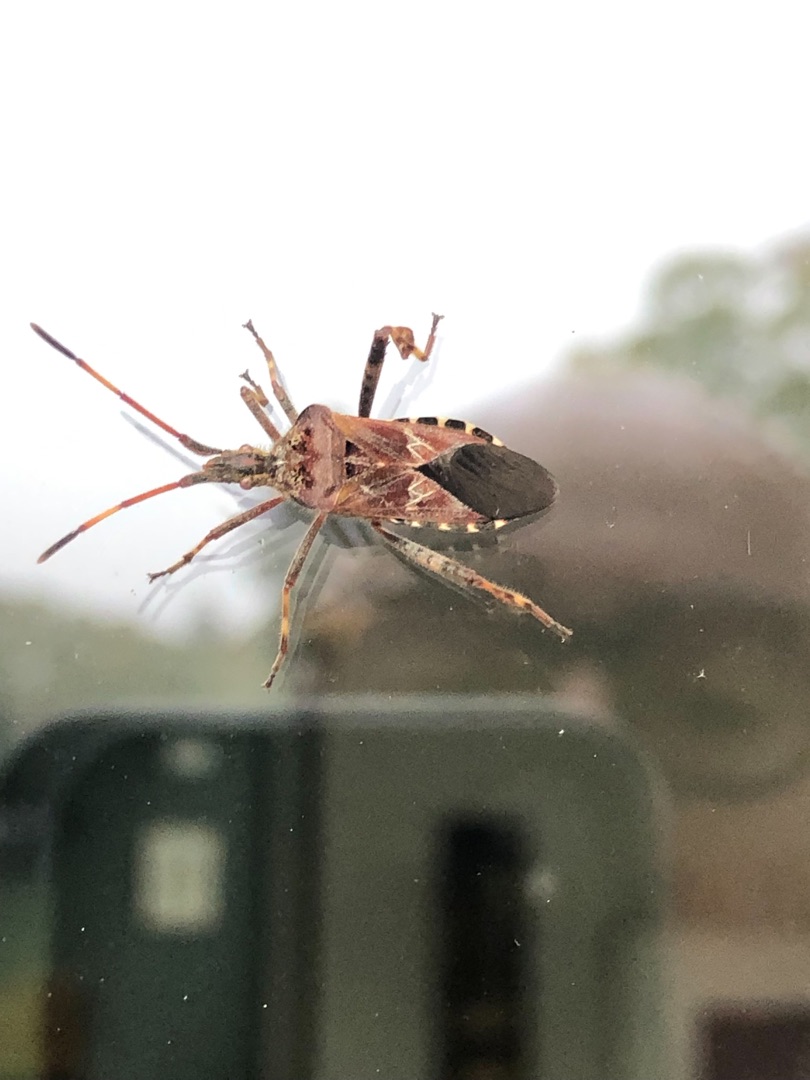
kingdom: Animalia
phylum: Arthropoda
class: Insecta
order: Hemiptera
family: Coreidae
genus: Leptoglossus
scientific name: Leptoglossus occidentalis
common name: Amerikansk fyrretæge
